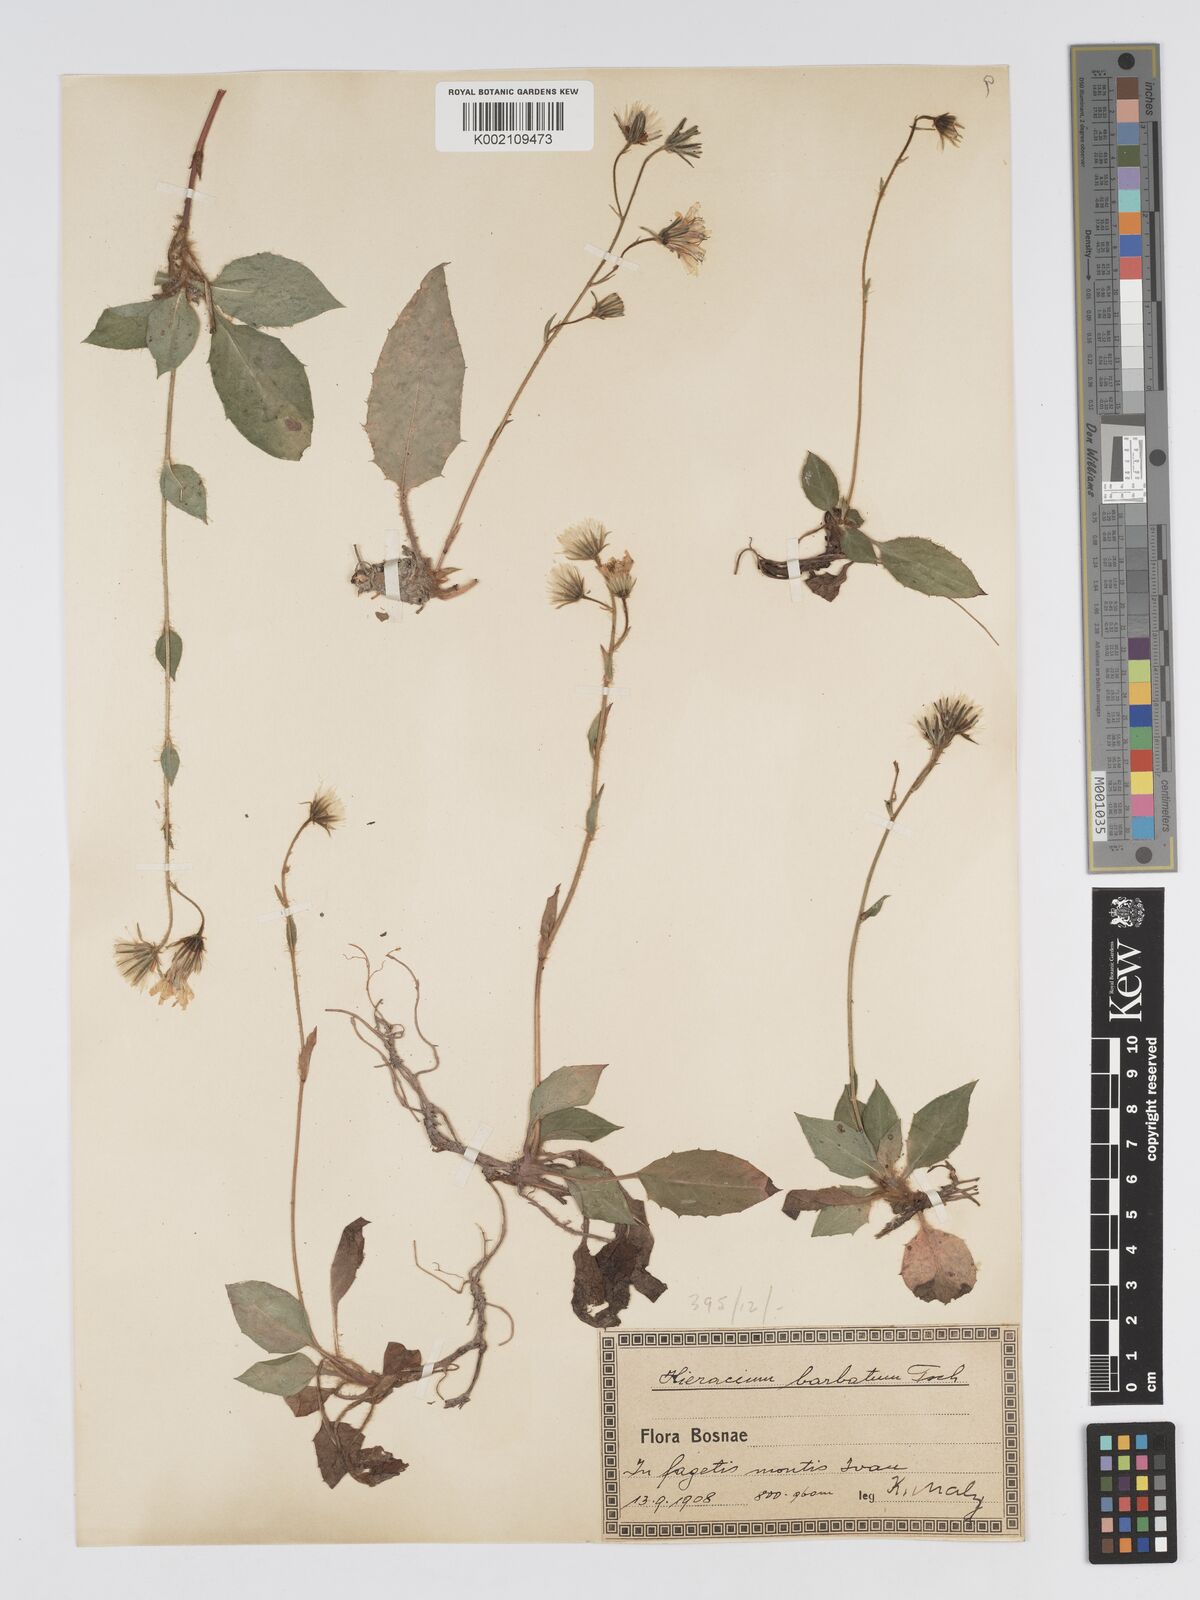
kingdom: Plantae
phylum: Tracheophyta
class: Magnoliopsida
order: Asterales
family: Asteraceae
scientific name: Asteraceae
